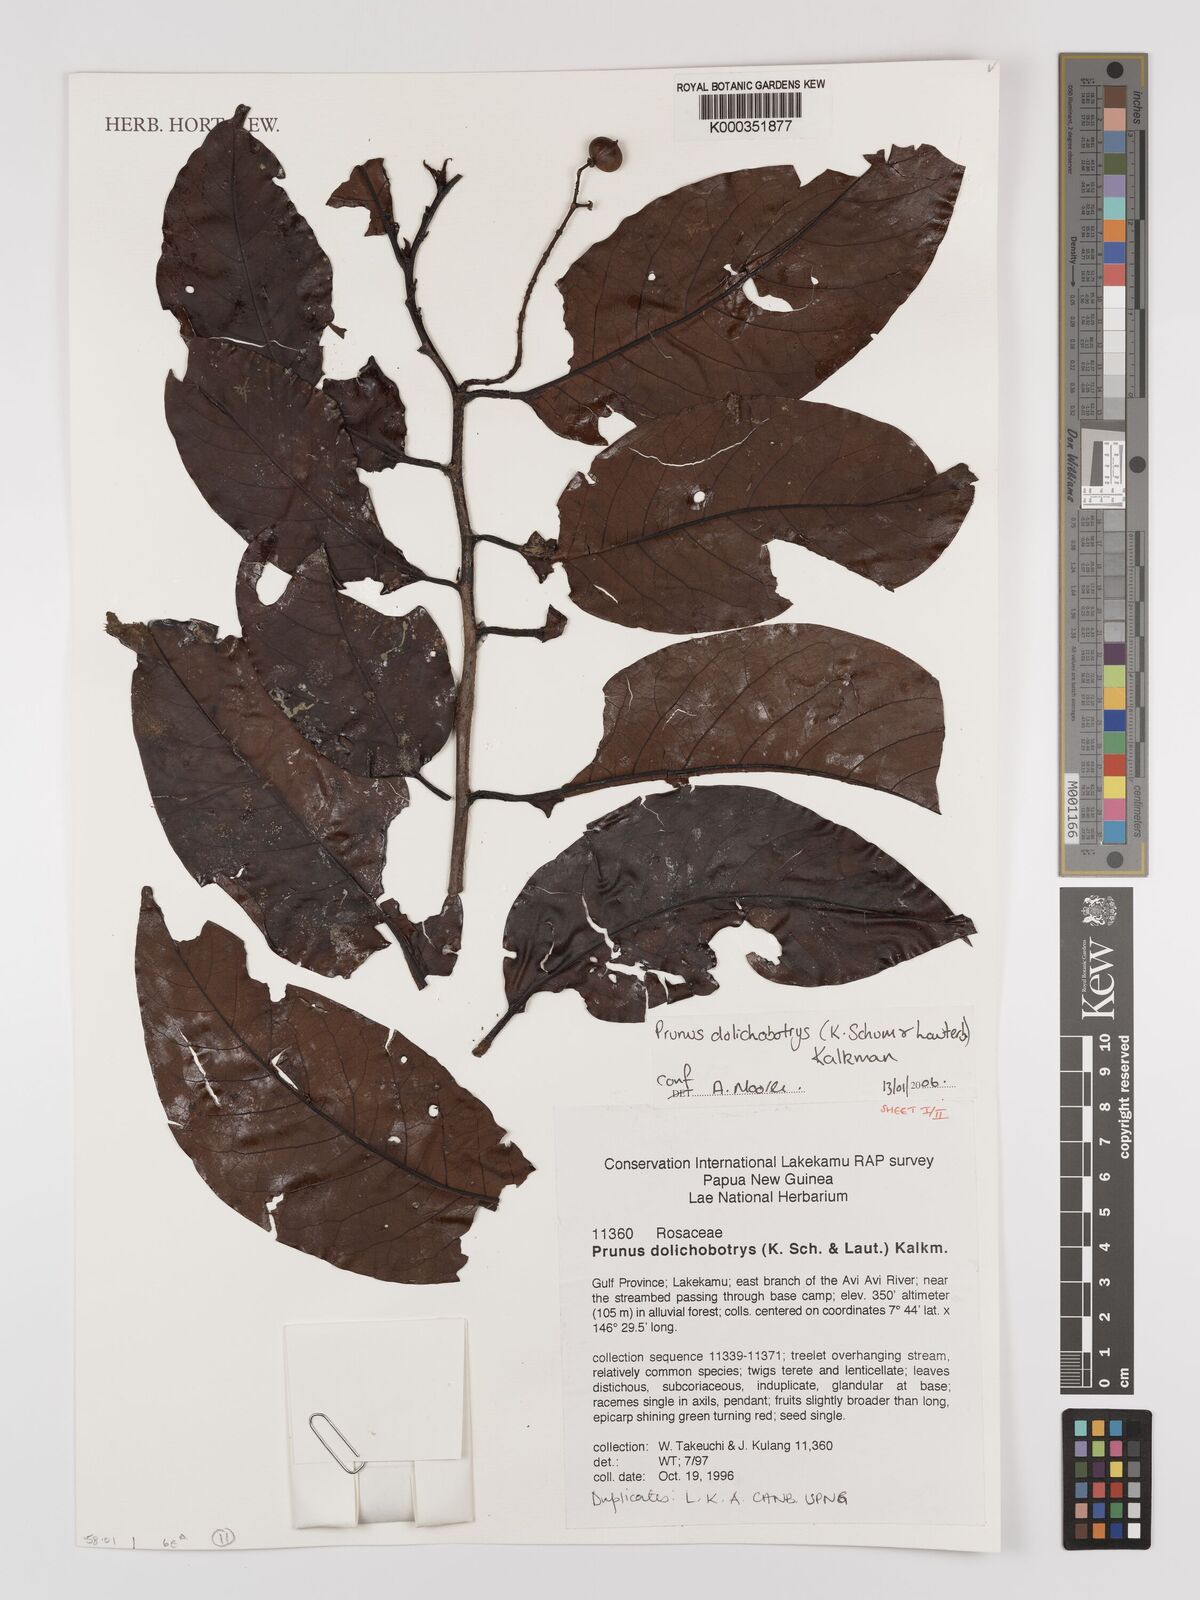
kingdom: Plantae
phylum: Tracheophyta
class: Magnoliopsida
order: Rosales
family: Rosaceae
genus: Prunus
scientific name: Prunus dolichobotrys
